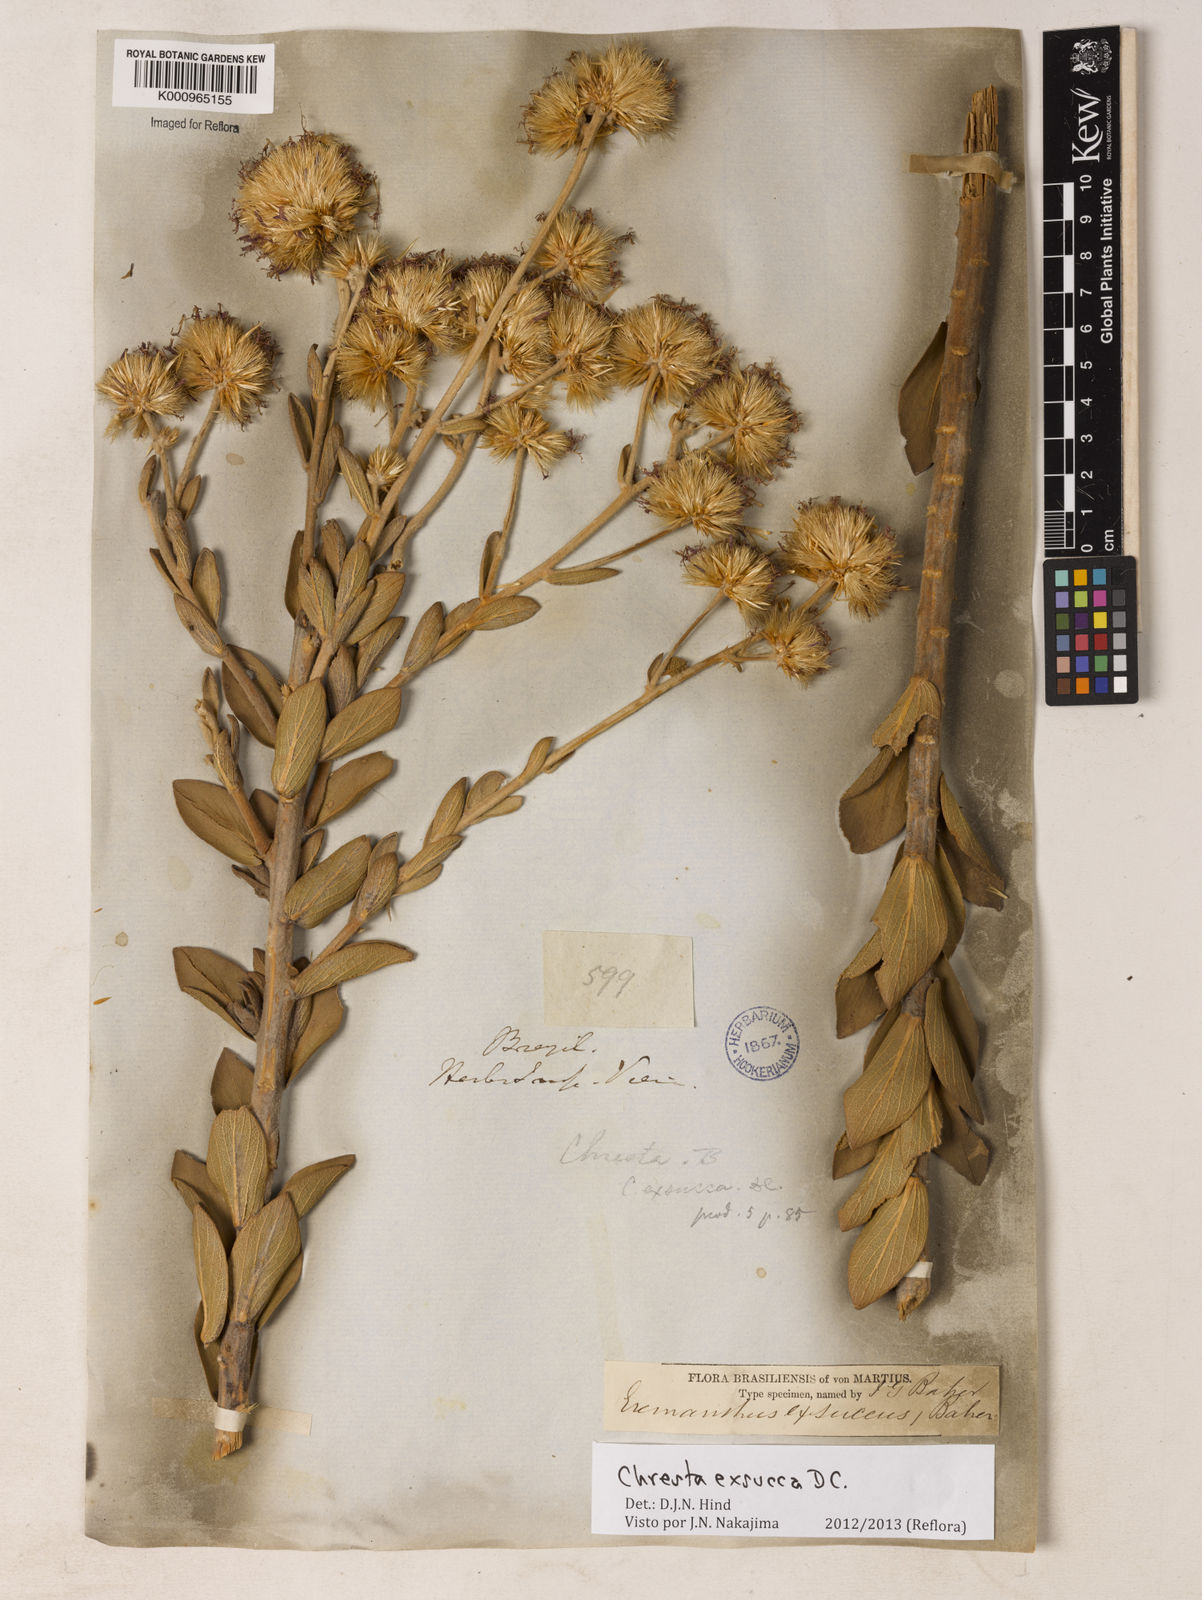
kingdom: Plantae
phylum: Tracheophyta
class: Magnoliopsida
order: Asterales
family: Asteraceae
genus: Chresta
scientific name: Chresta exsucca
